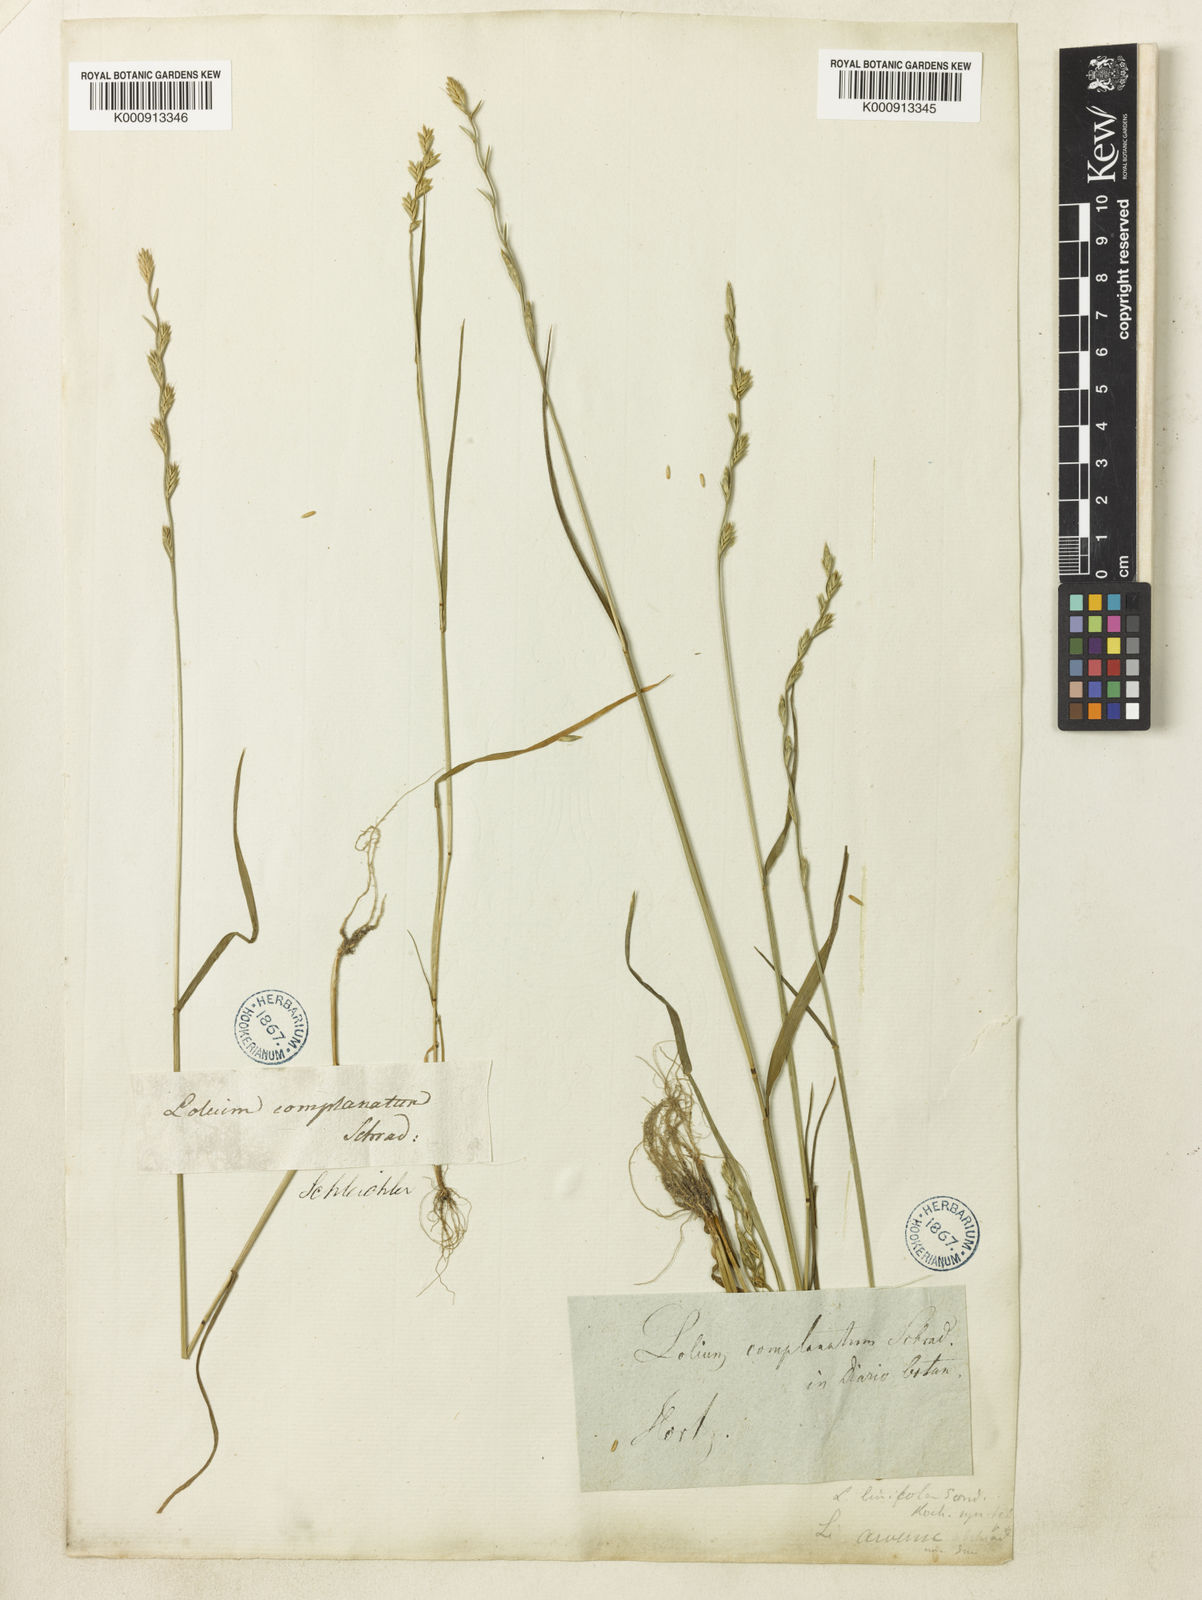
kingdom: Plantae
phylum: Tracheophyta
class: Liliopsida
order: Poales
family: Poaceae
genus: Lolium
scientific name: Lolium remotum
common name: Flaxfield rye-grass
